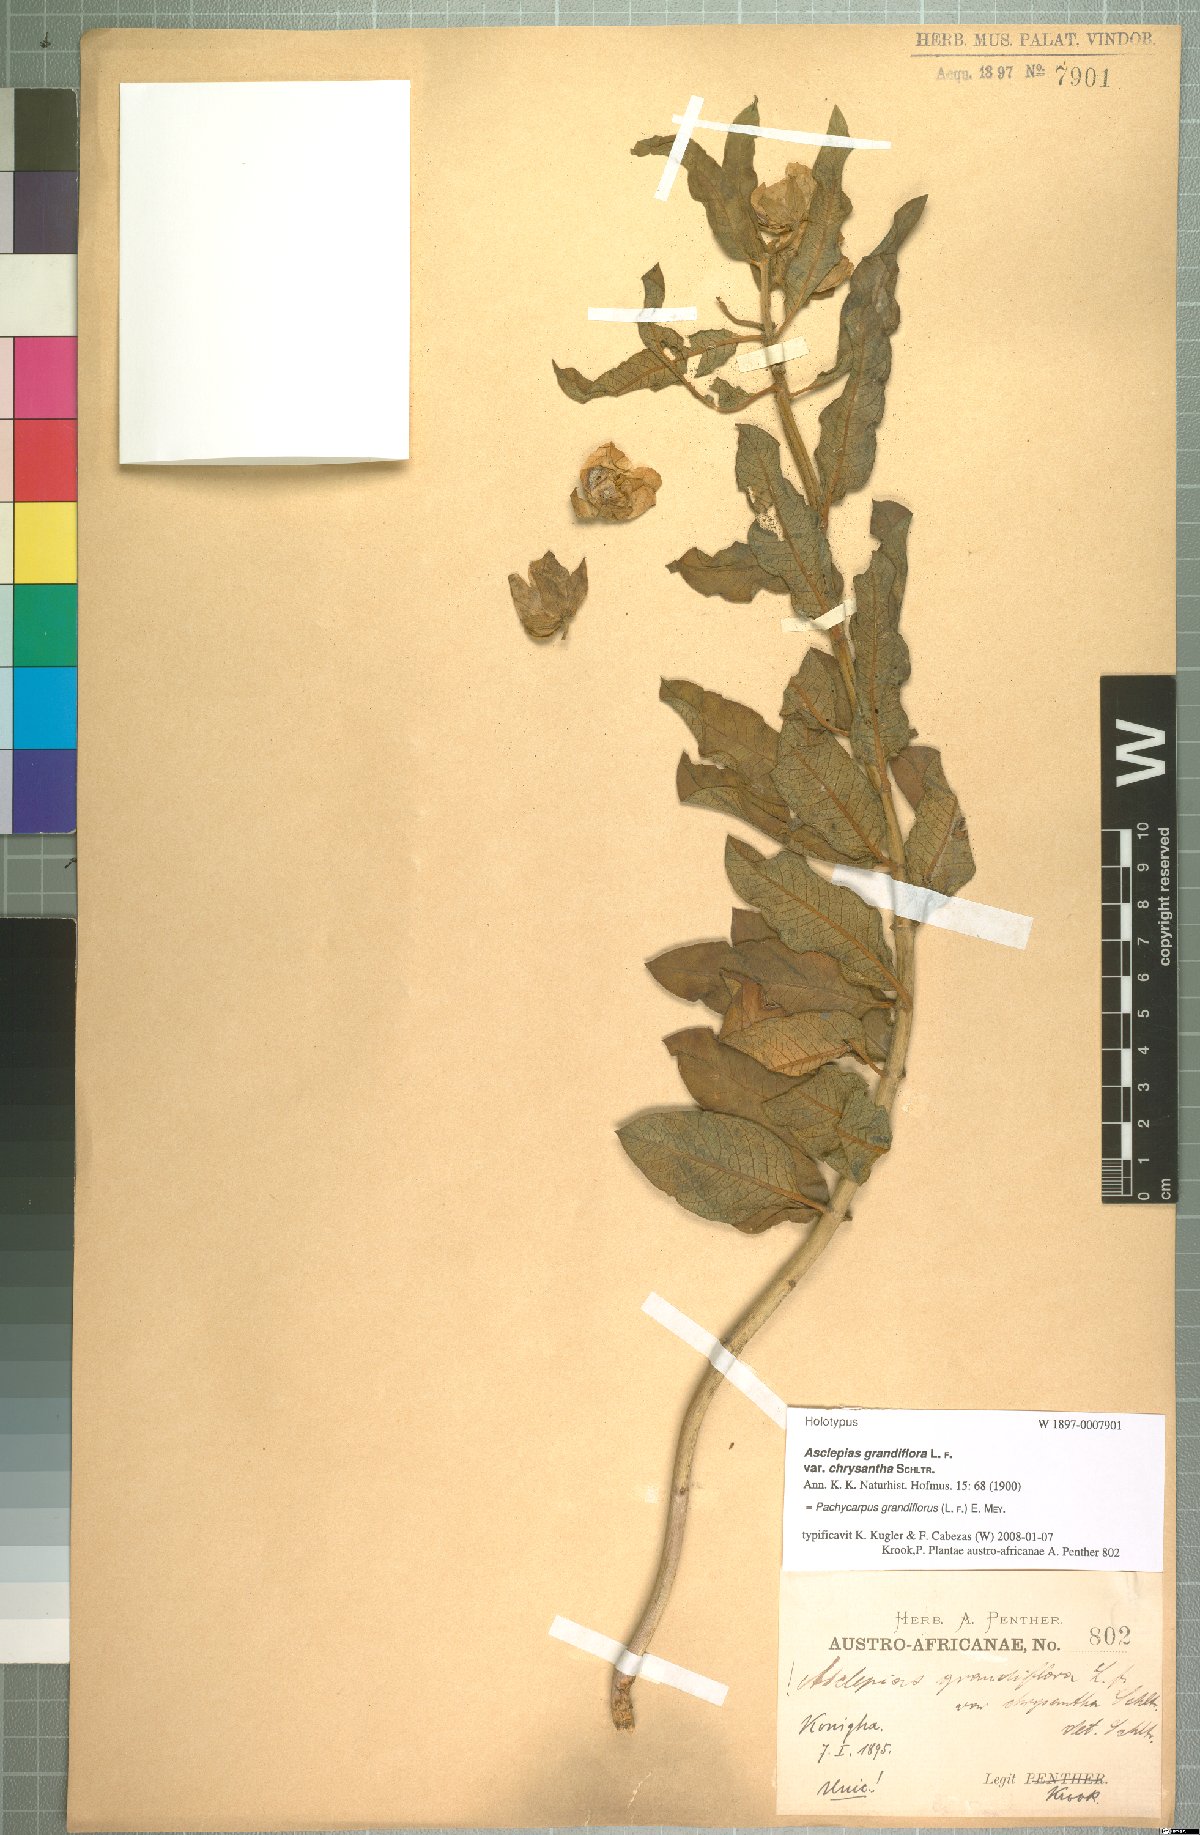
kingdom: Plantae
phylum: Tracheophyta
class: Magnoliopsida
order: Gentianales
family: Apocynaceae
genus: Pachycarpus
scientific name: Pachycarpus grandiflorus
